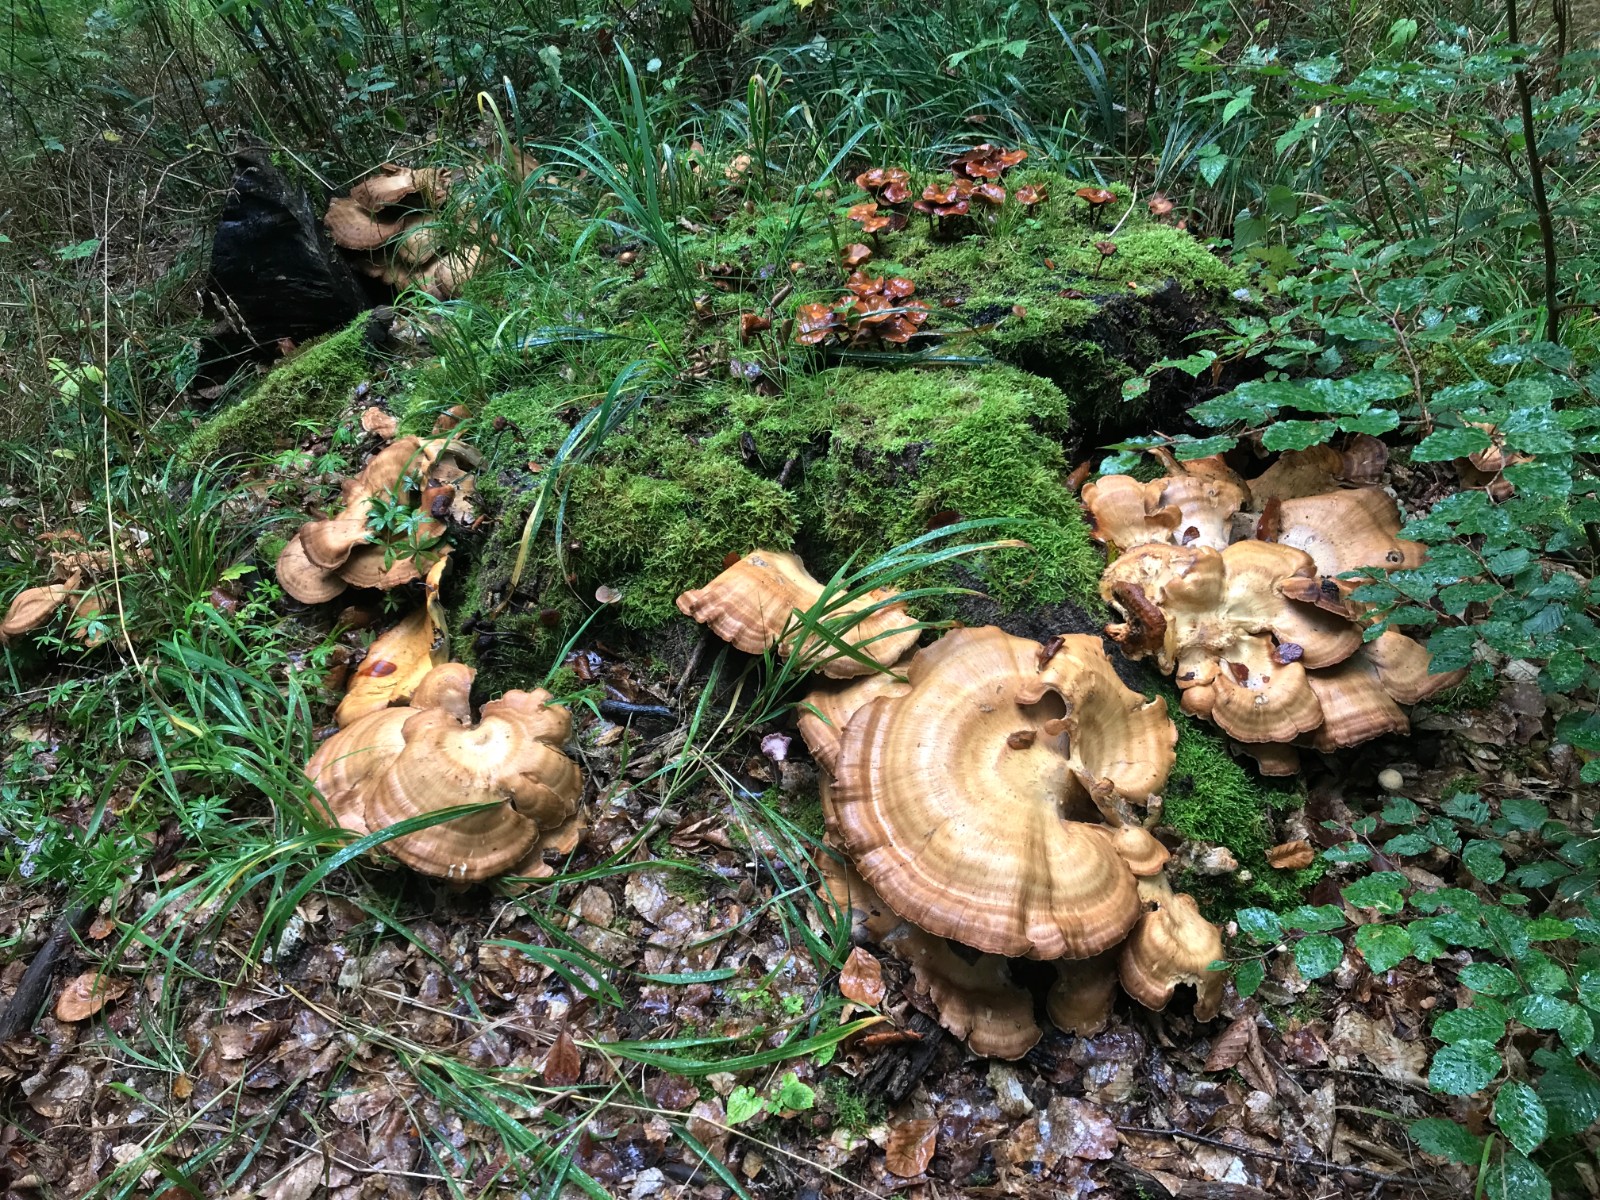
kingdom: Fungi
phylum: Basidiomycota
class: Agaricomycetes
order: Polyporales
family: Meripilaceae
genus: Meripilus
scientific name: Meripilus giganteus
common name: kæmpeporesvamp
